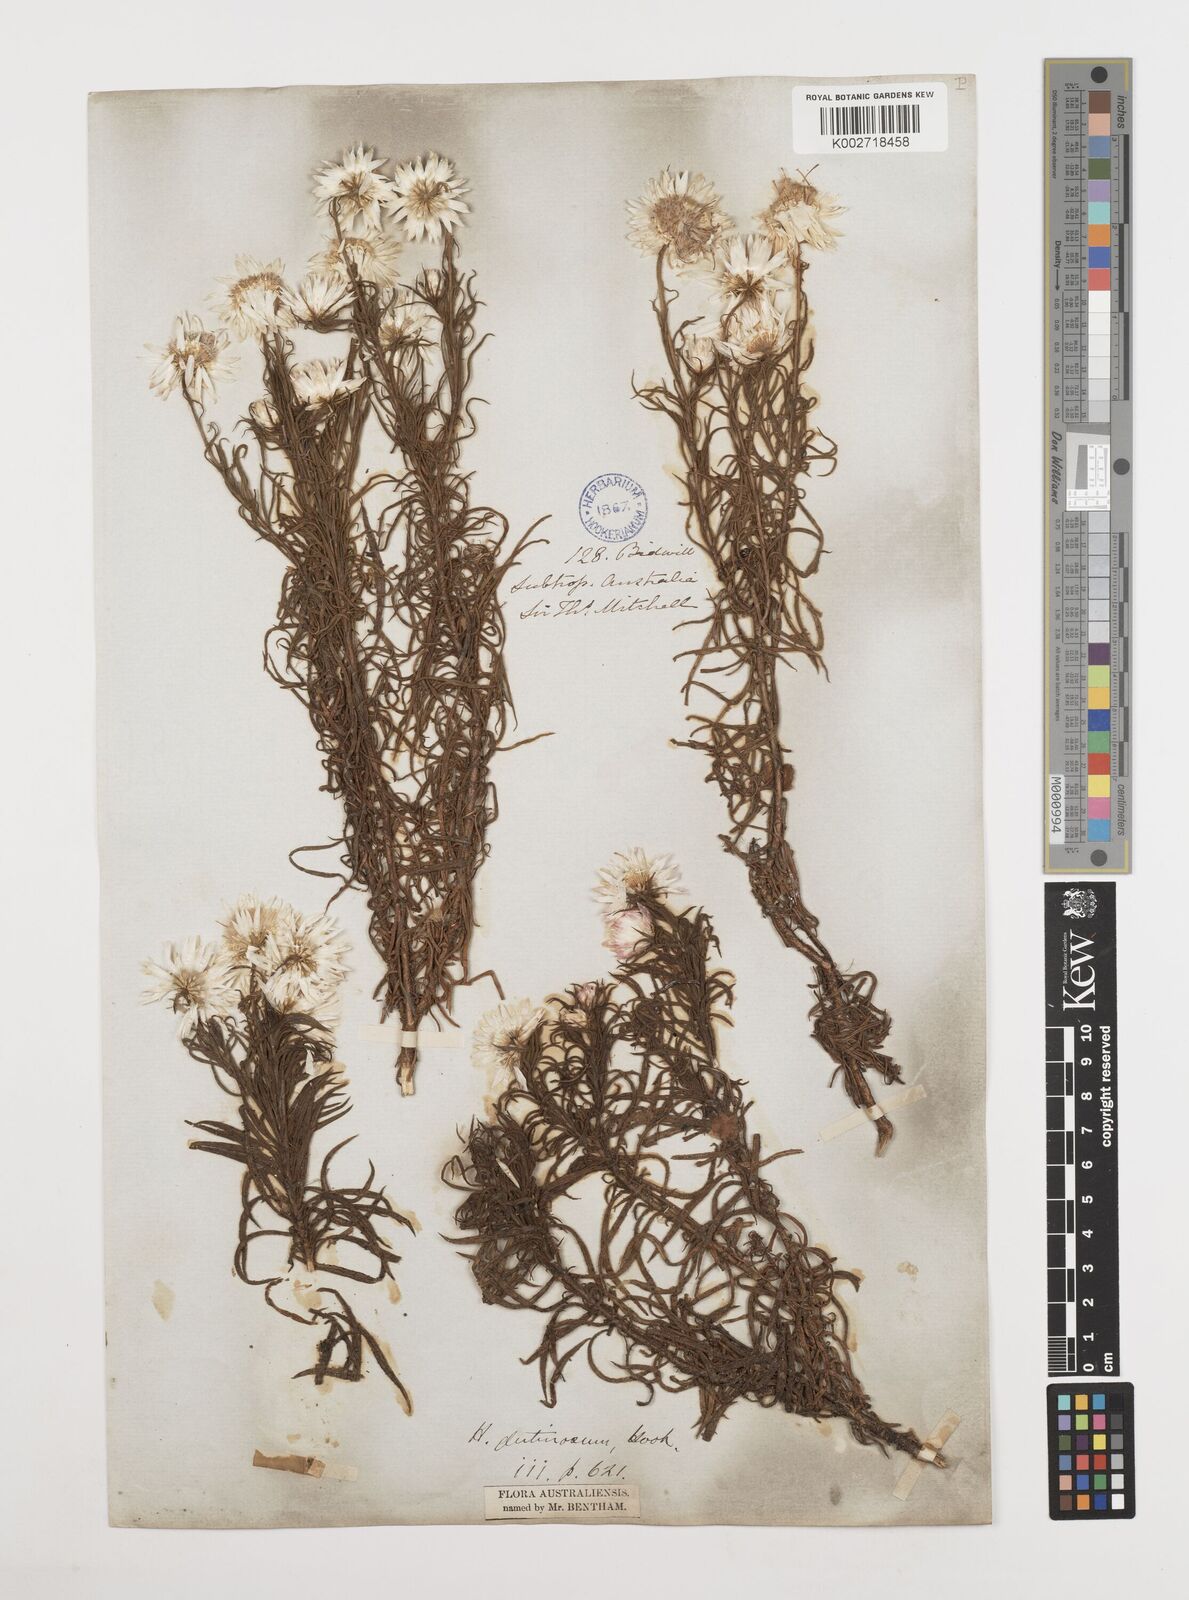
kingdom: Plantae
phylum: Tracheophyta
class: Magnoliopsida
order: Asterales
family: Asteraceae
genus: Coronidium
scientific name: Coronidium glutinosum
